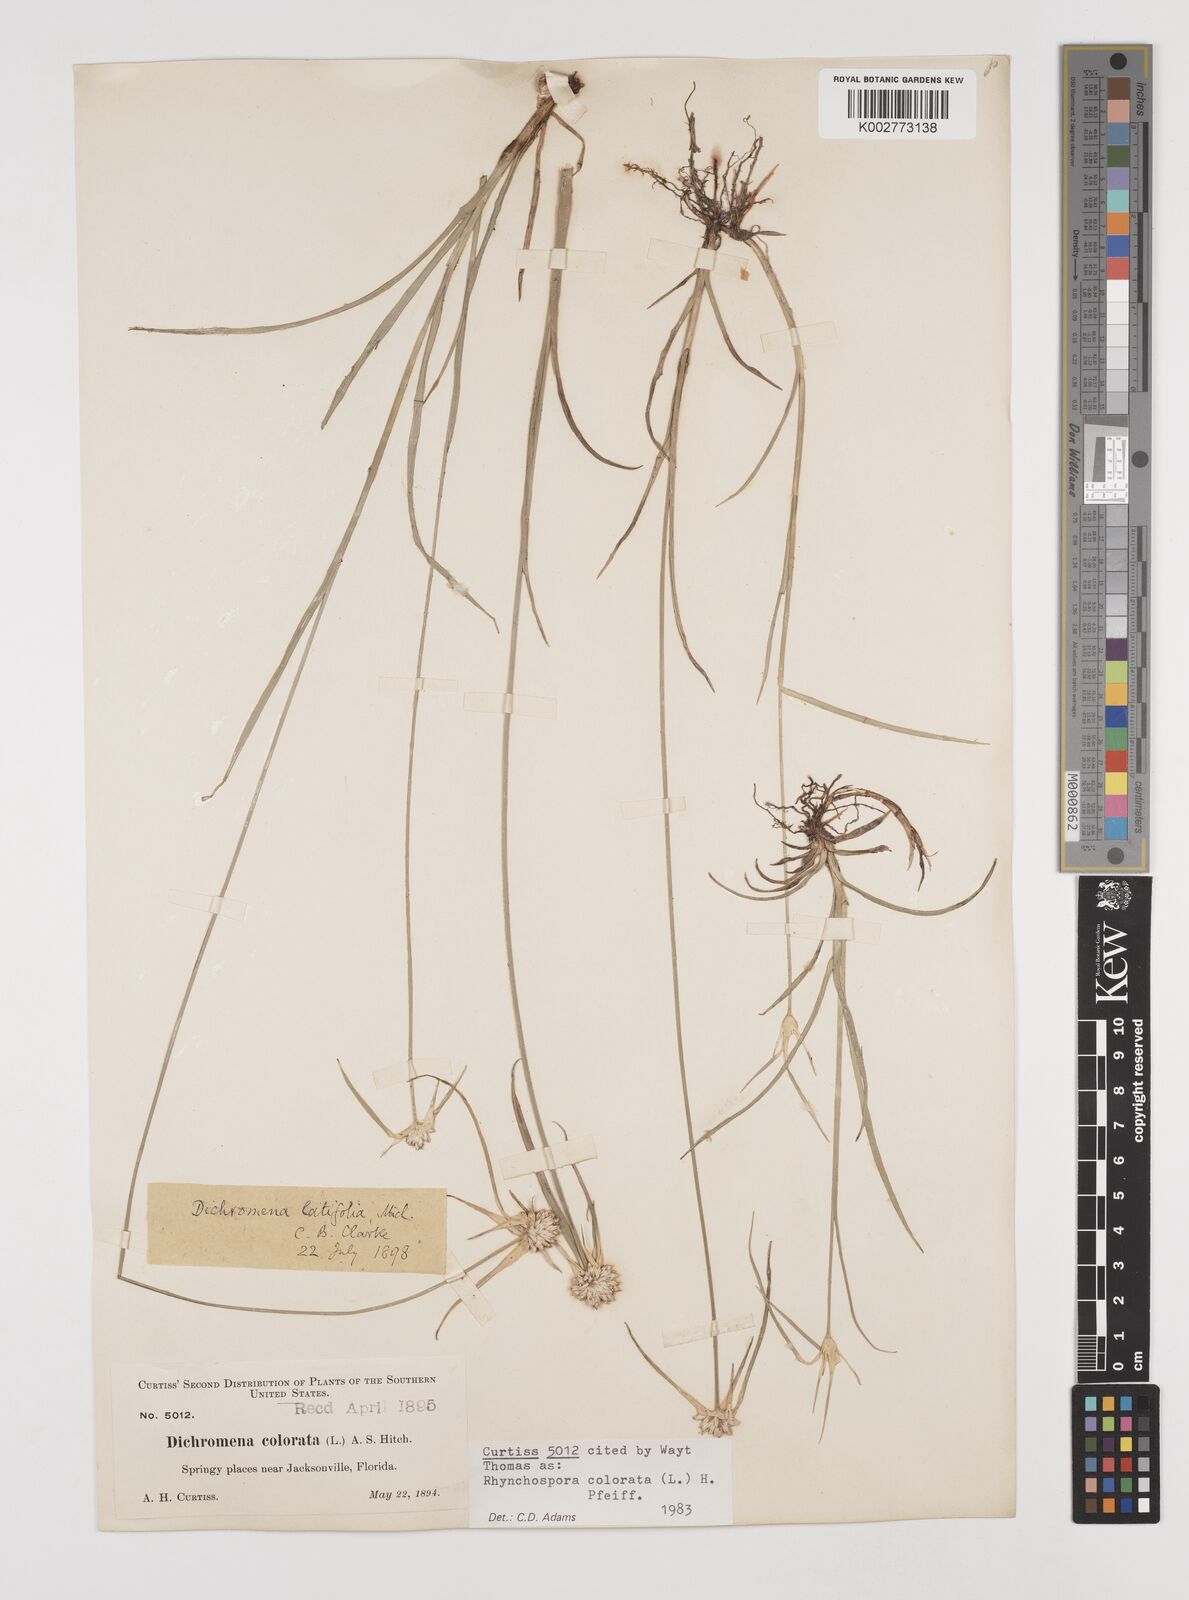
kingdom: Plantae
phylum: Tracheophyta
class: Liliopsida
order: Poales
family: Cyperaceae
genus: Rhynchospora
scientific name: Rhynchospora colorata
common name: Star sedge
